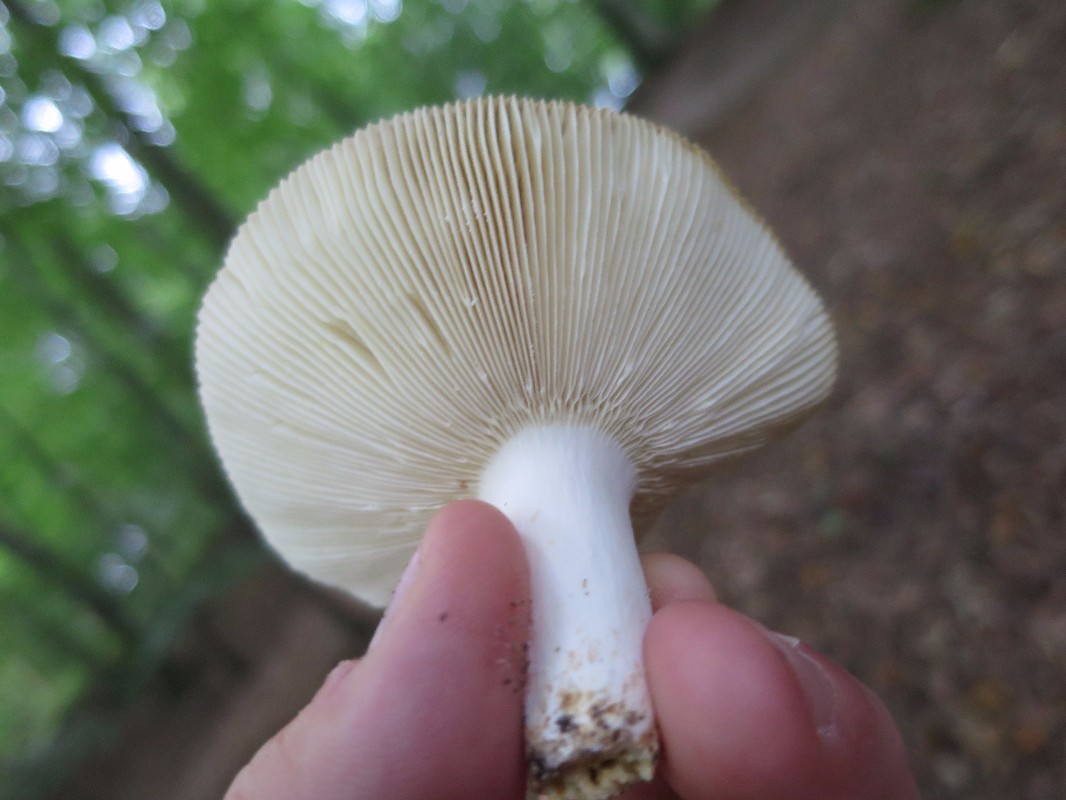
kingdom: Fungi
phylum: Basidiomycota
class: Agaricomycetes
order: Russulales
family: Russulaceae
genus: Russula
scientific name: Russula vesca
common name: spiselig skørhat
